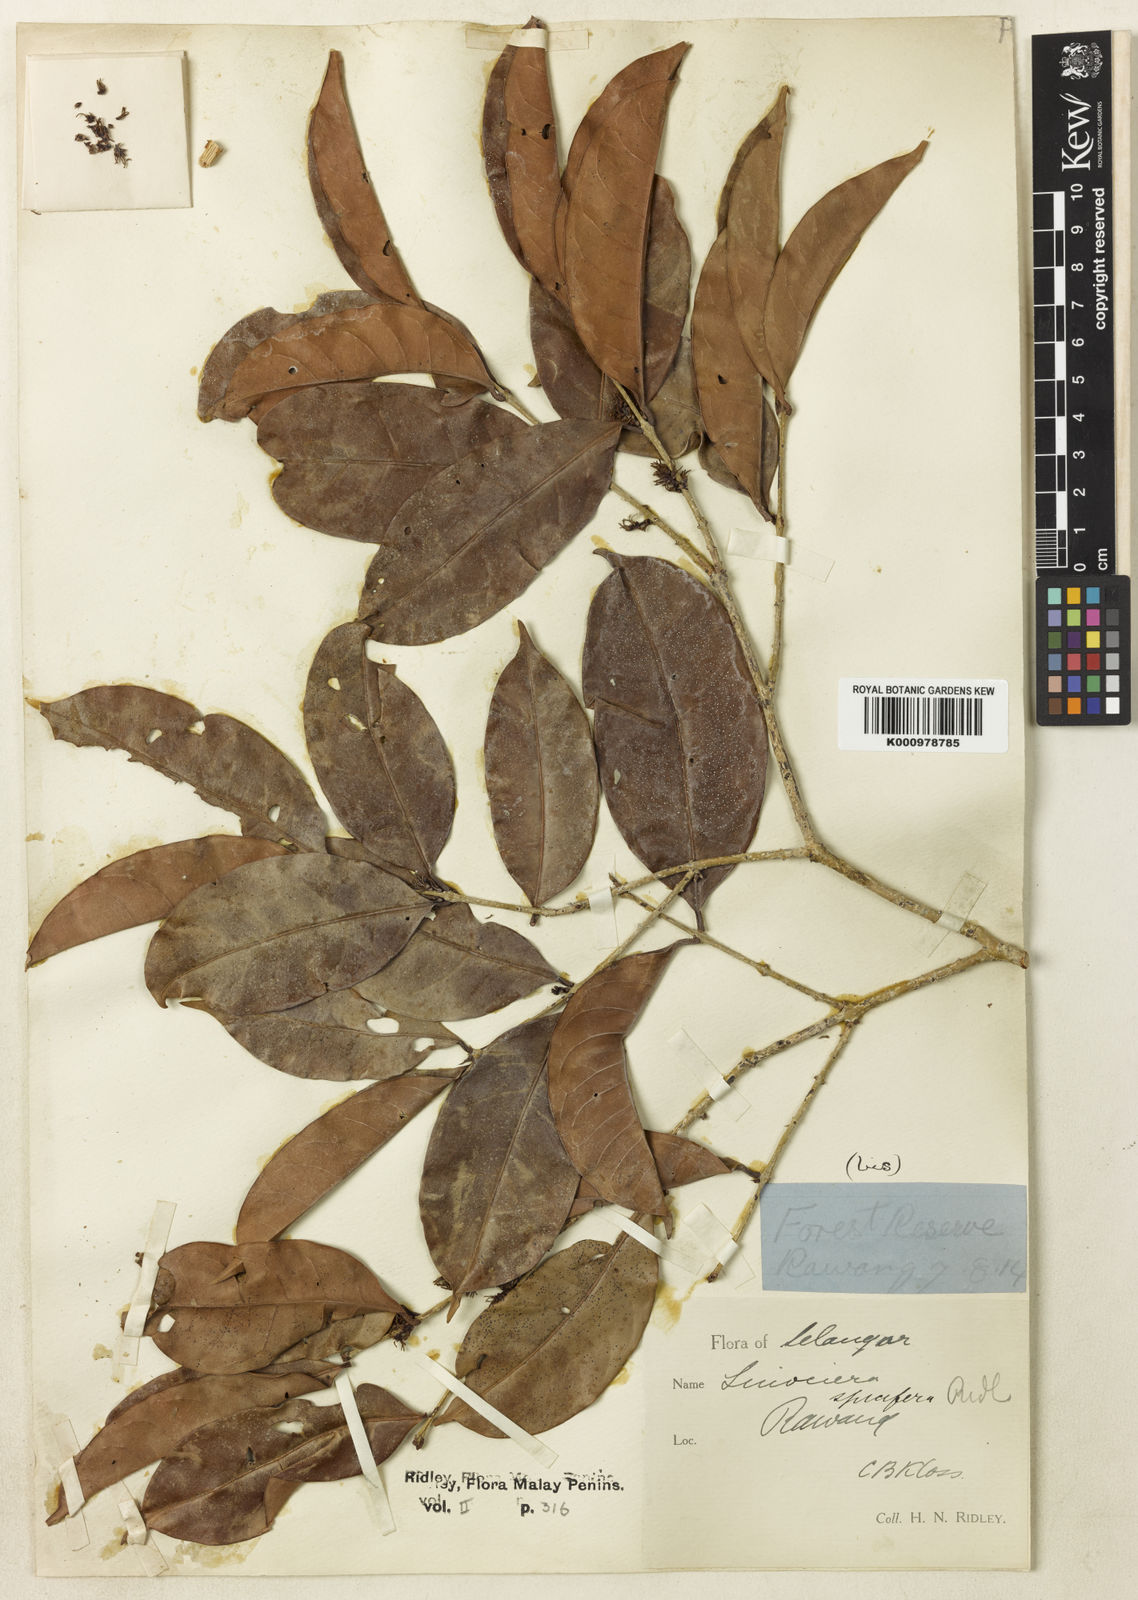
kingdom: Plantae
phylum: Tracheophyta
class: Magnoliopsida
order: Lamiales
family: Oleaceae
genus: Chionanthus
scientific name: Chionanthus
